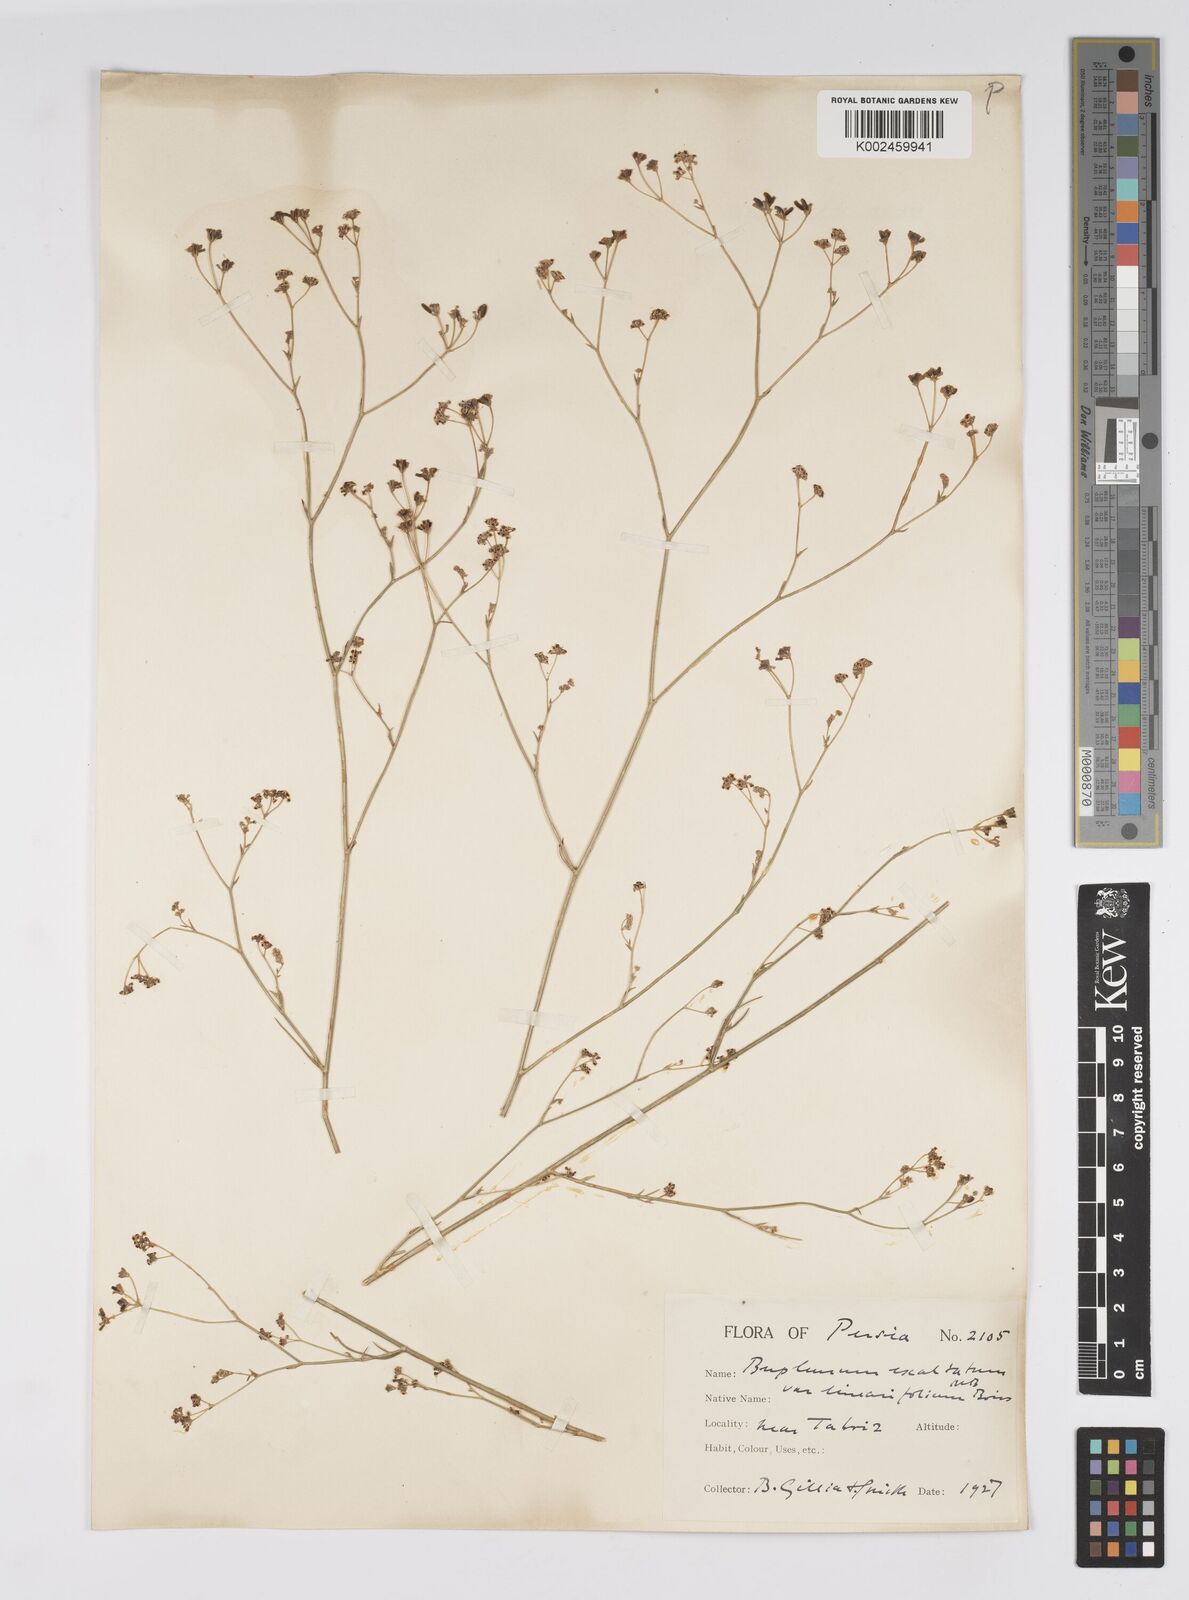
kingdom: Plantae
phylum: Tracheophyta
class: Magnoliopsida
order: Apiales
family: Apiaceae
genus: Bupleurum
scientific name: Bupleurum falcatum
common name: Sickle-leaved hare's-ear
